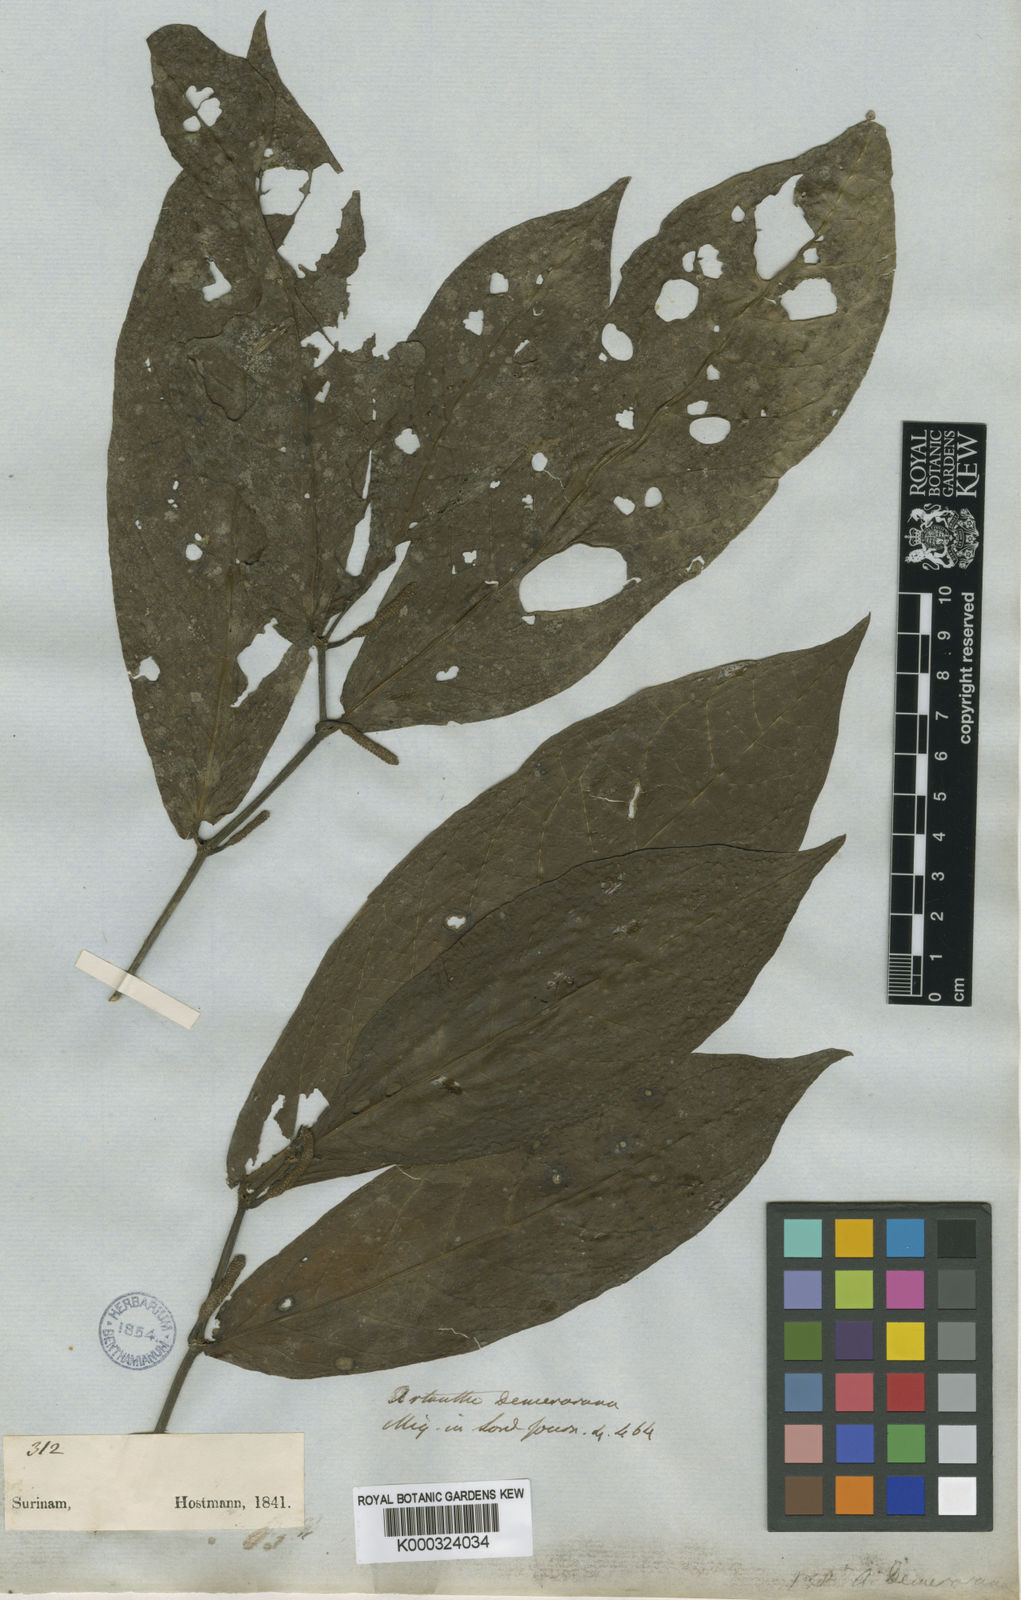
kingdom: Plantae
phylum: Tracheophyta
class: Magnoliopsida
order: Piperales
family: Piperaceae
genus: Piper
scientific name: Piper demeraranum
